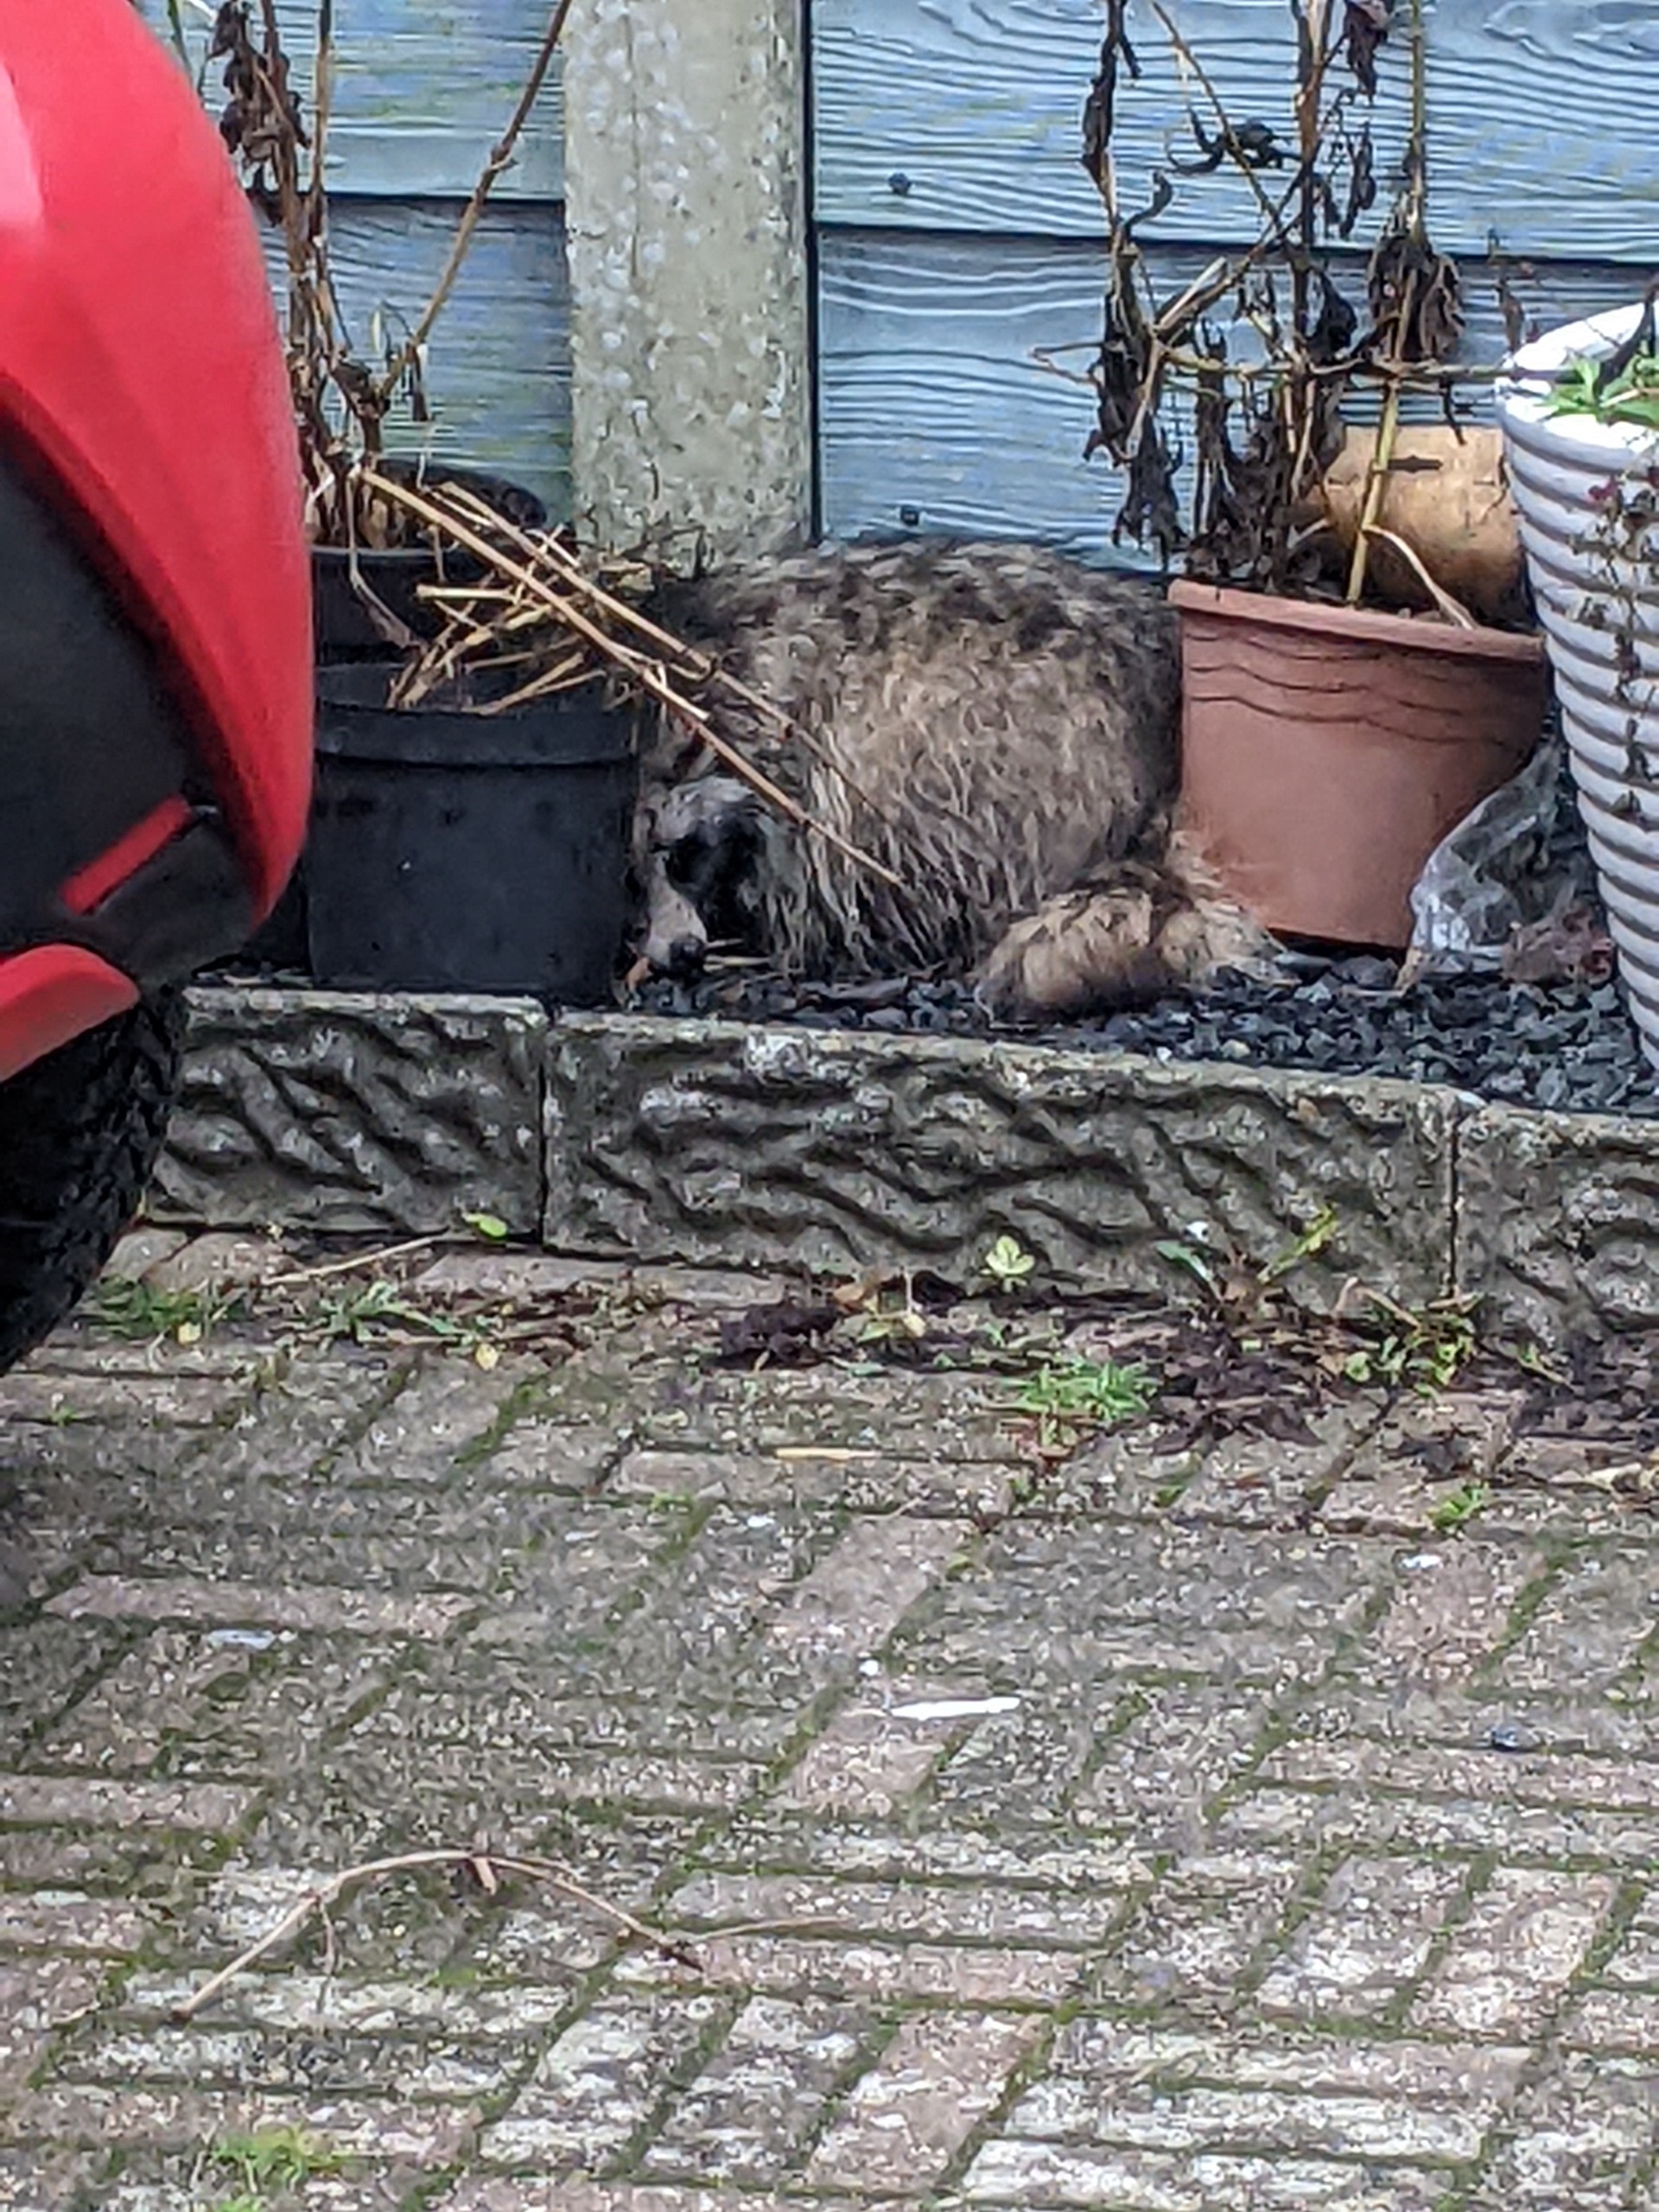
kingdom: Animalia
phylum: Chordata
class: Mammalia
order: Carnivora
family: Canidae
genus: Nyctereutes
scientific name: Nyctereutes procyonoides
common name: Mårhund
